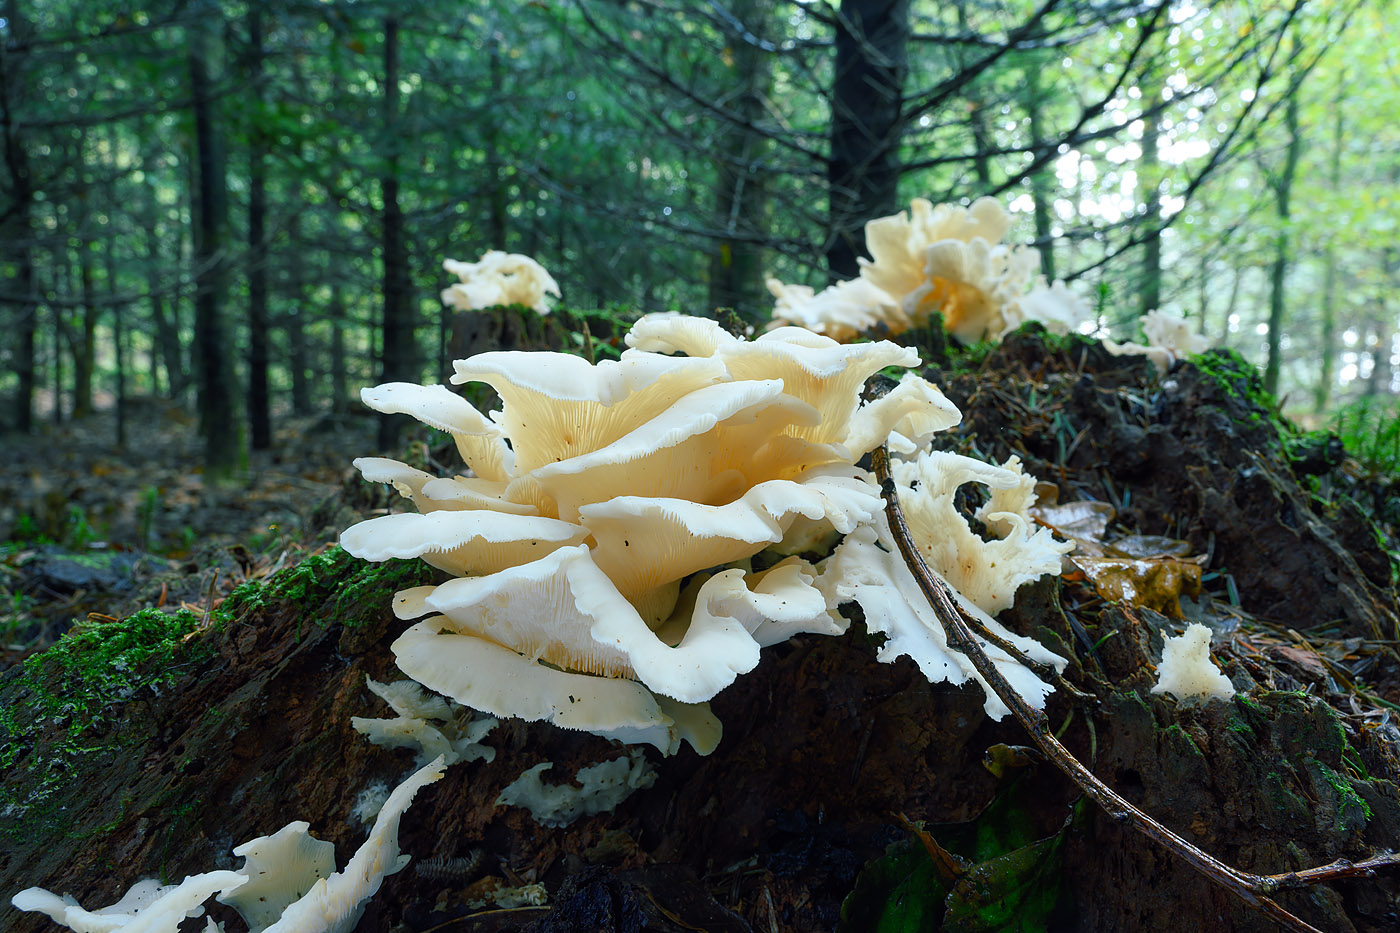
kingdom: Fungi
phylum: Basidiomycota
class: Agaricomycetes
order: Agaricales
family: Marasmiaceae
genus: Pleurocybella
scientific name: Pleurocybella porrigens
